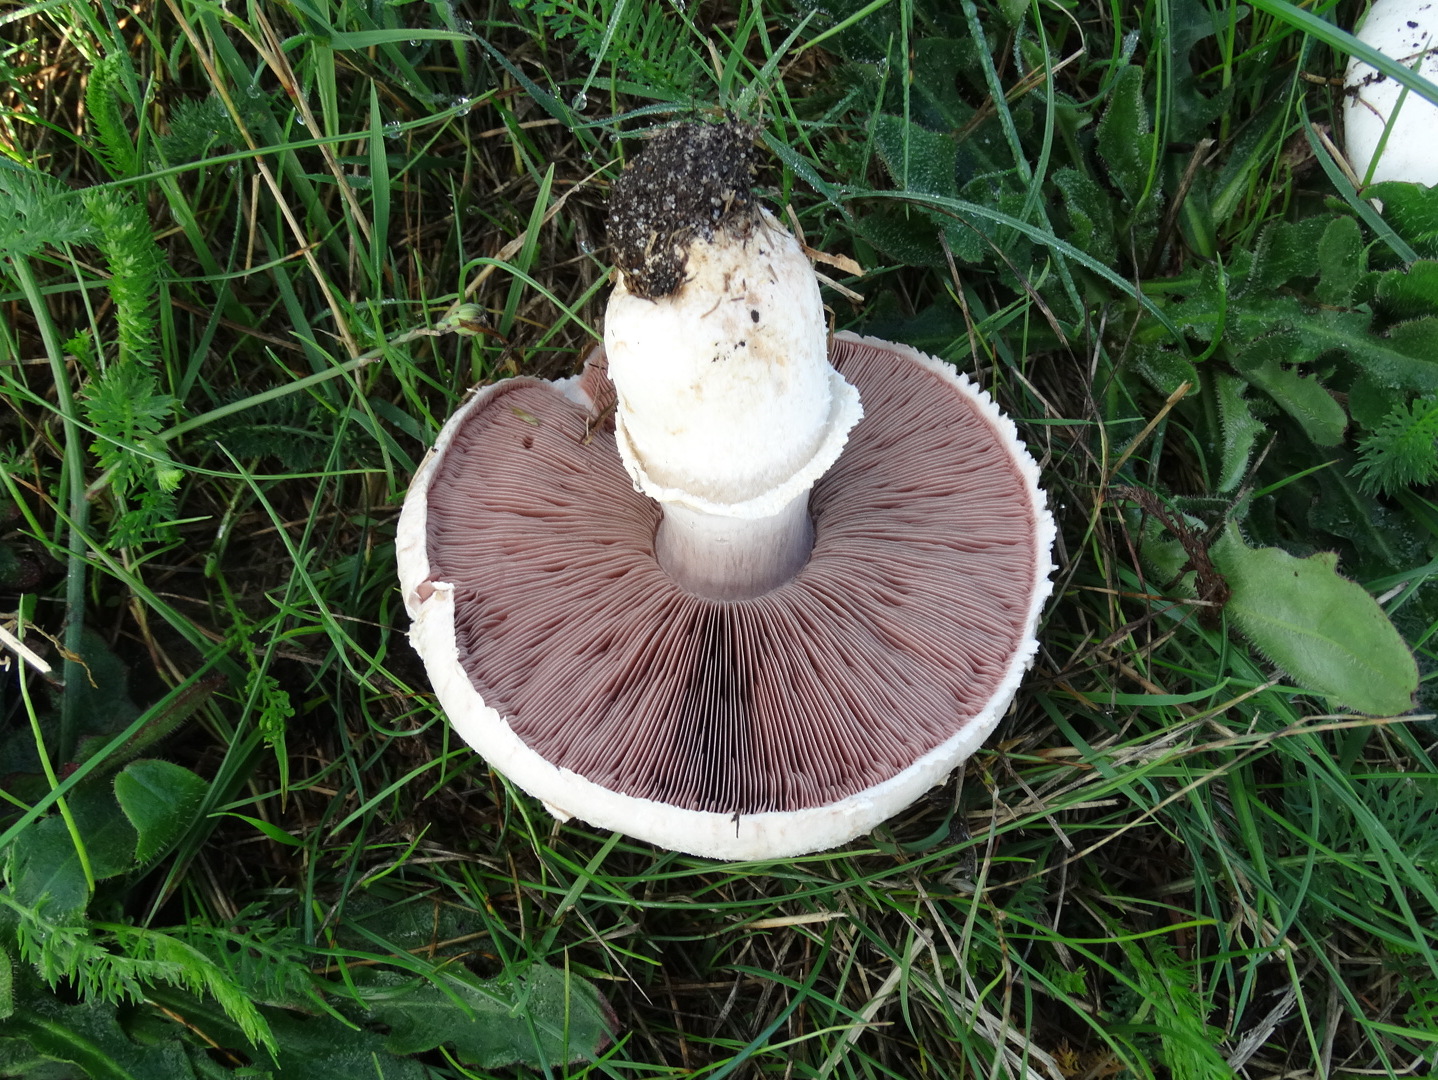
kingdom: Fungi
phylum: Basidiomycota
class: Agaricomycetes
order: Agaricales
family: Agaricaceae
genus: Agaricus
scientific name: Agaricus
